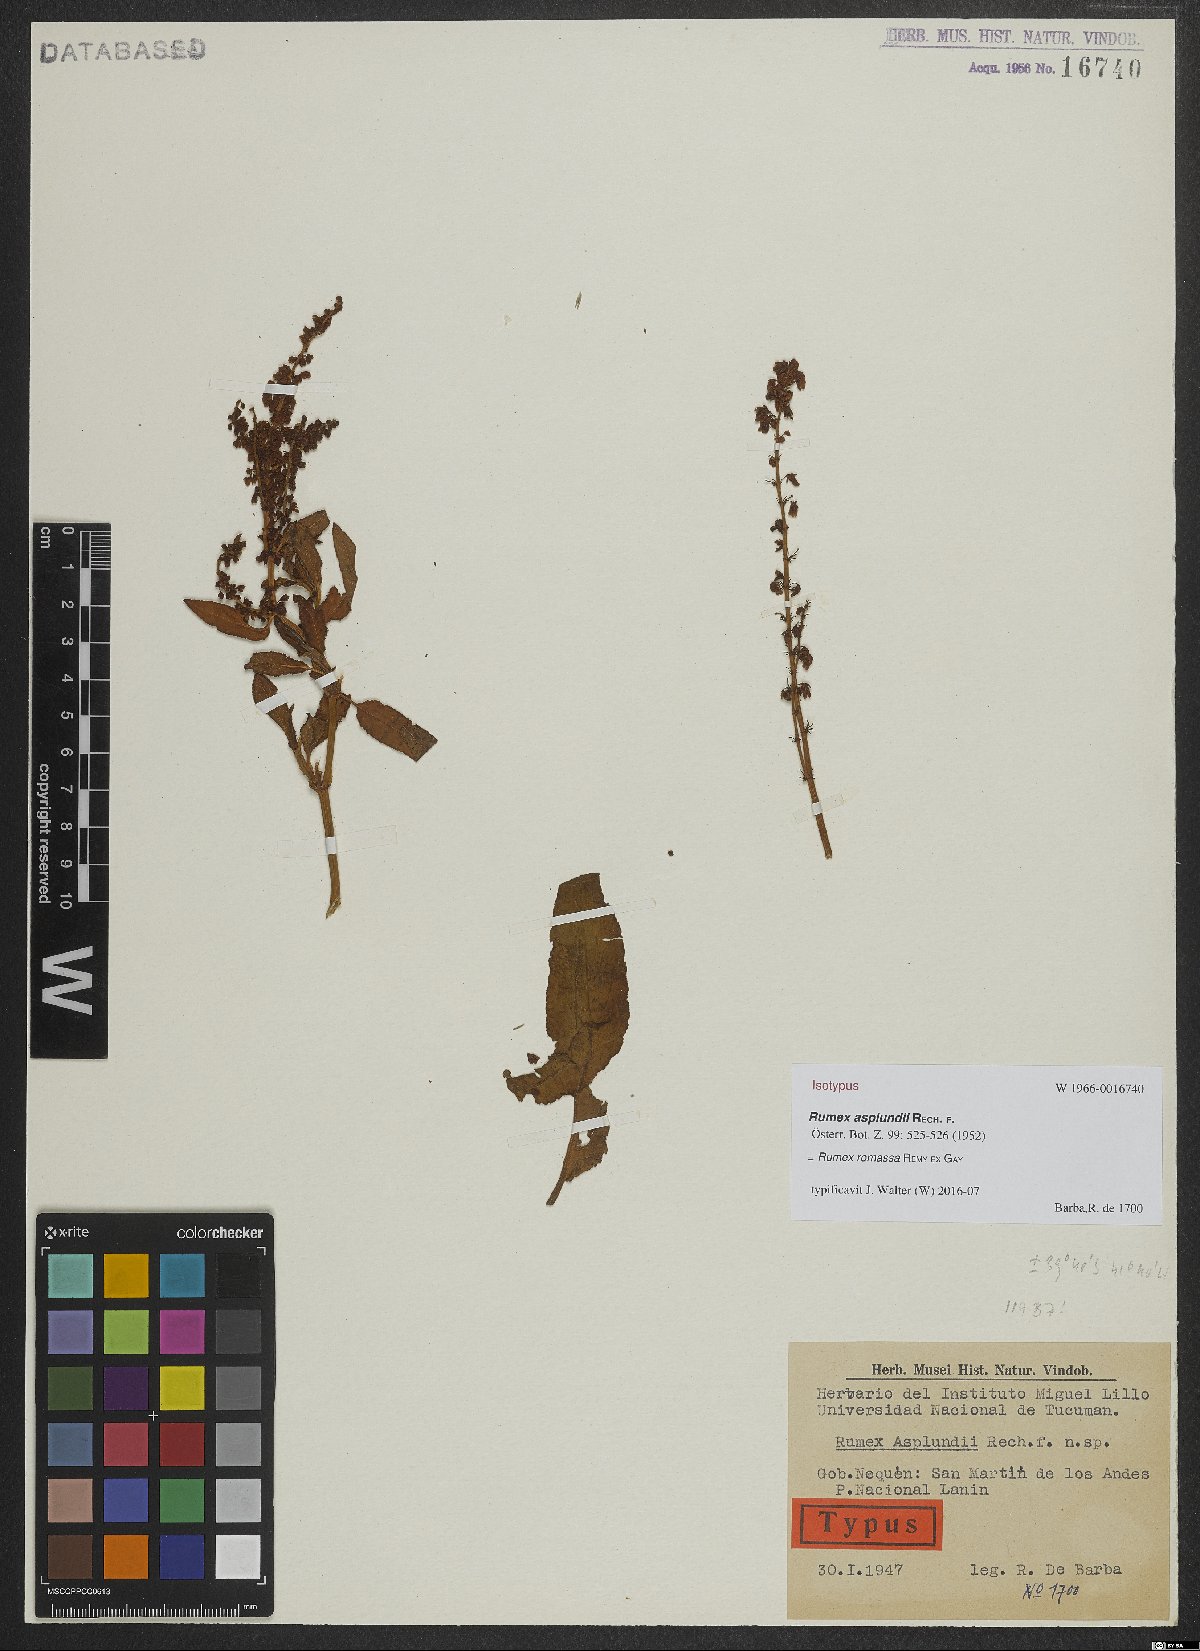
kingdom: Plantae
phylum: Tracheophyta
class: Magnoliopsida
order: Caryophyllales
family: Polygonaceae
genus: Rumex
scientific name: Rumex romassa
